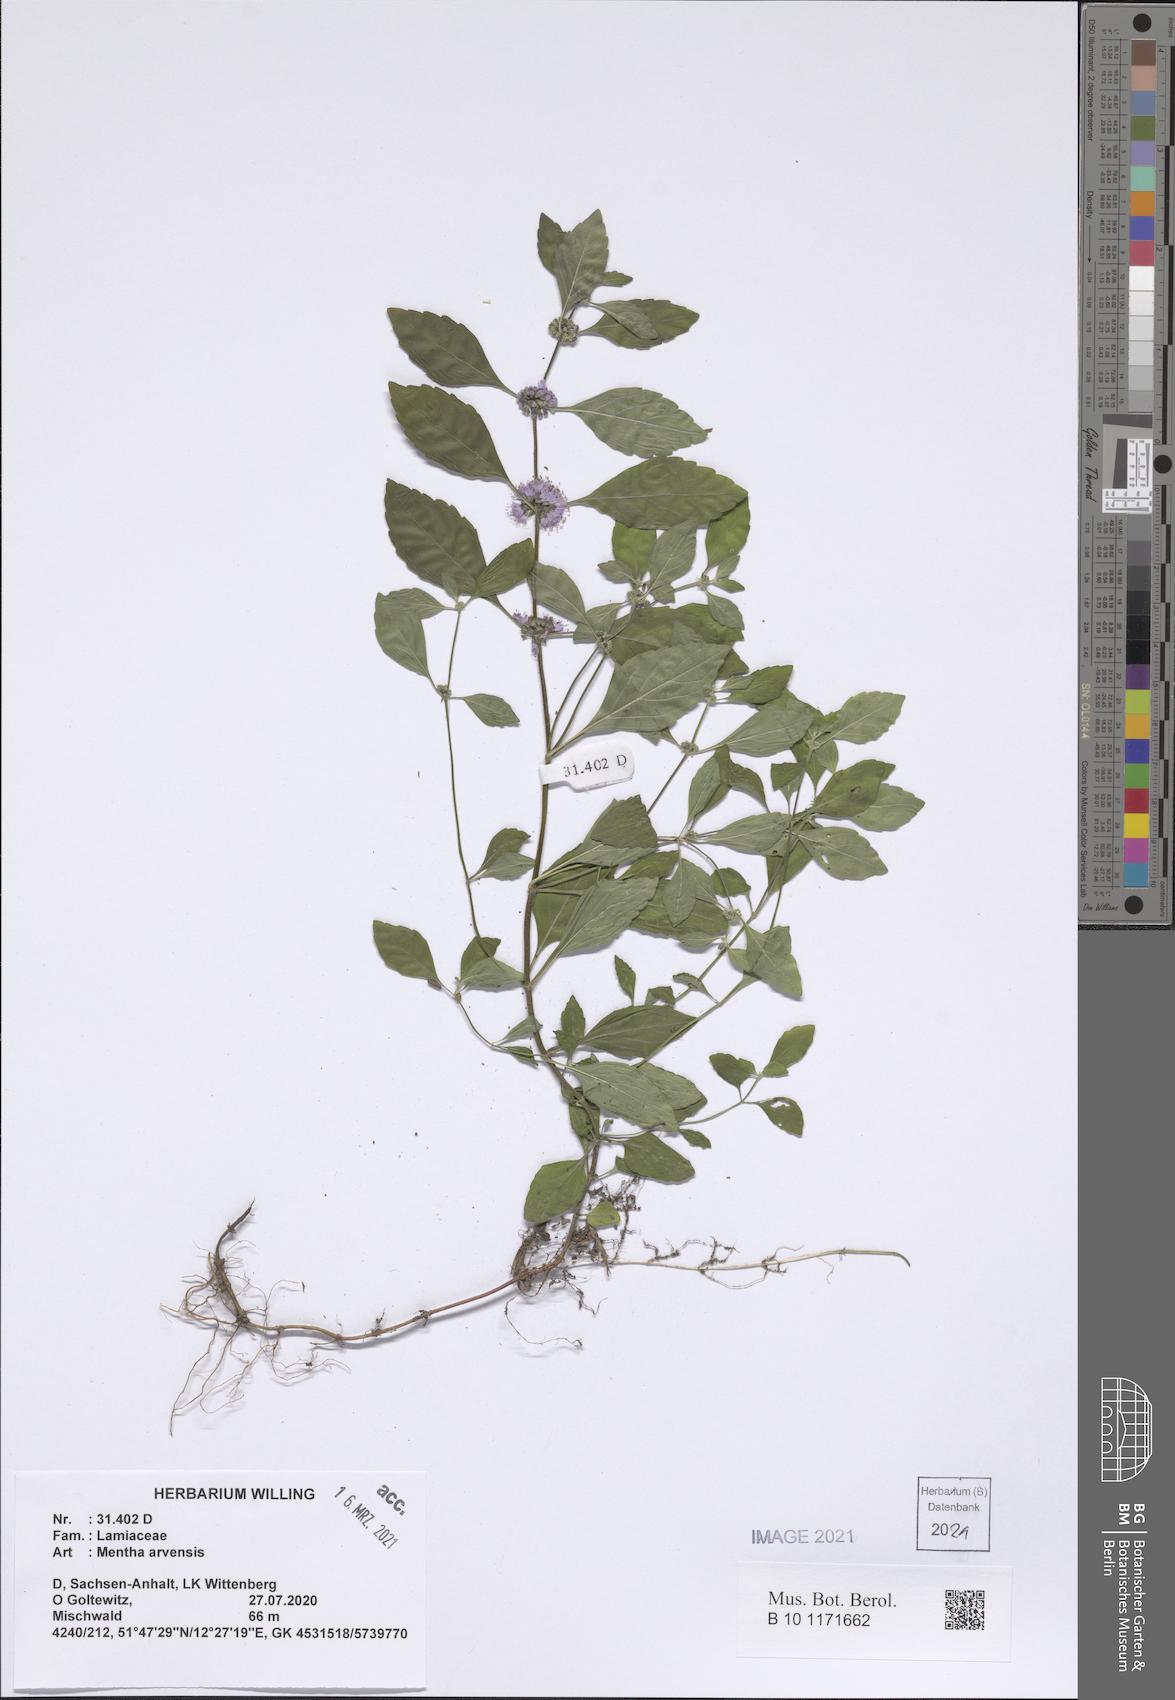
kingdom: Plantae
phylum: Tracheophyta
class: Magnoliopsida
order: Lamiales
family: Lamiaceae
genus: Mentha
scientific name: Mentha arvensis
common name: Corn mint
